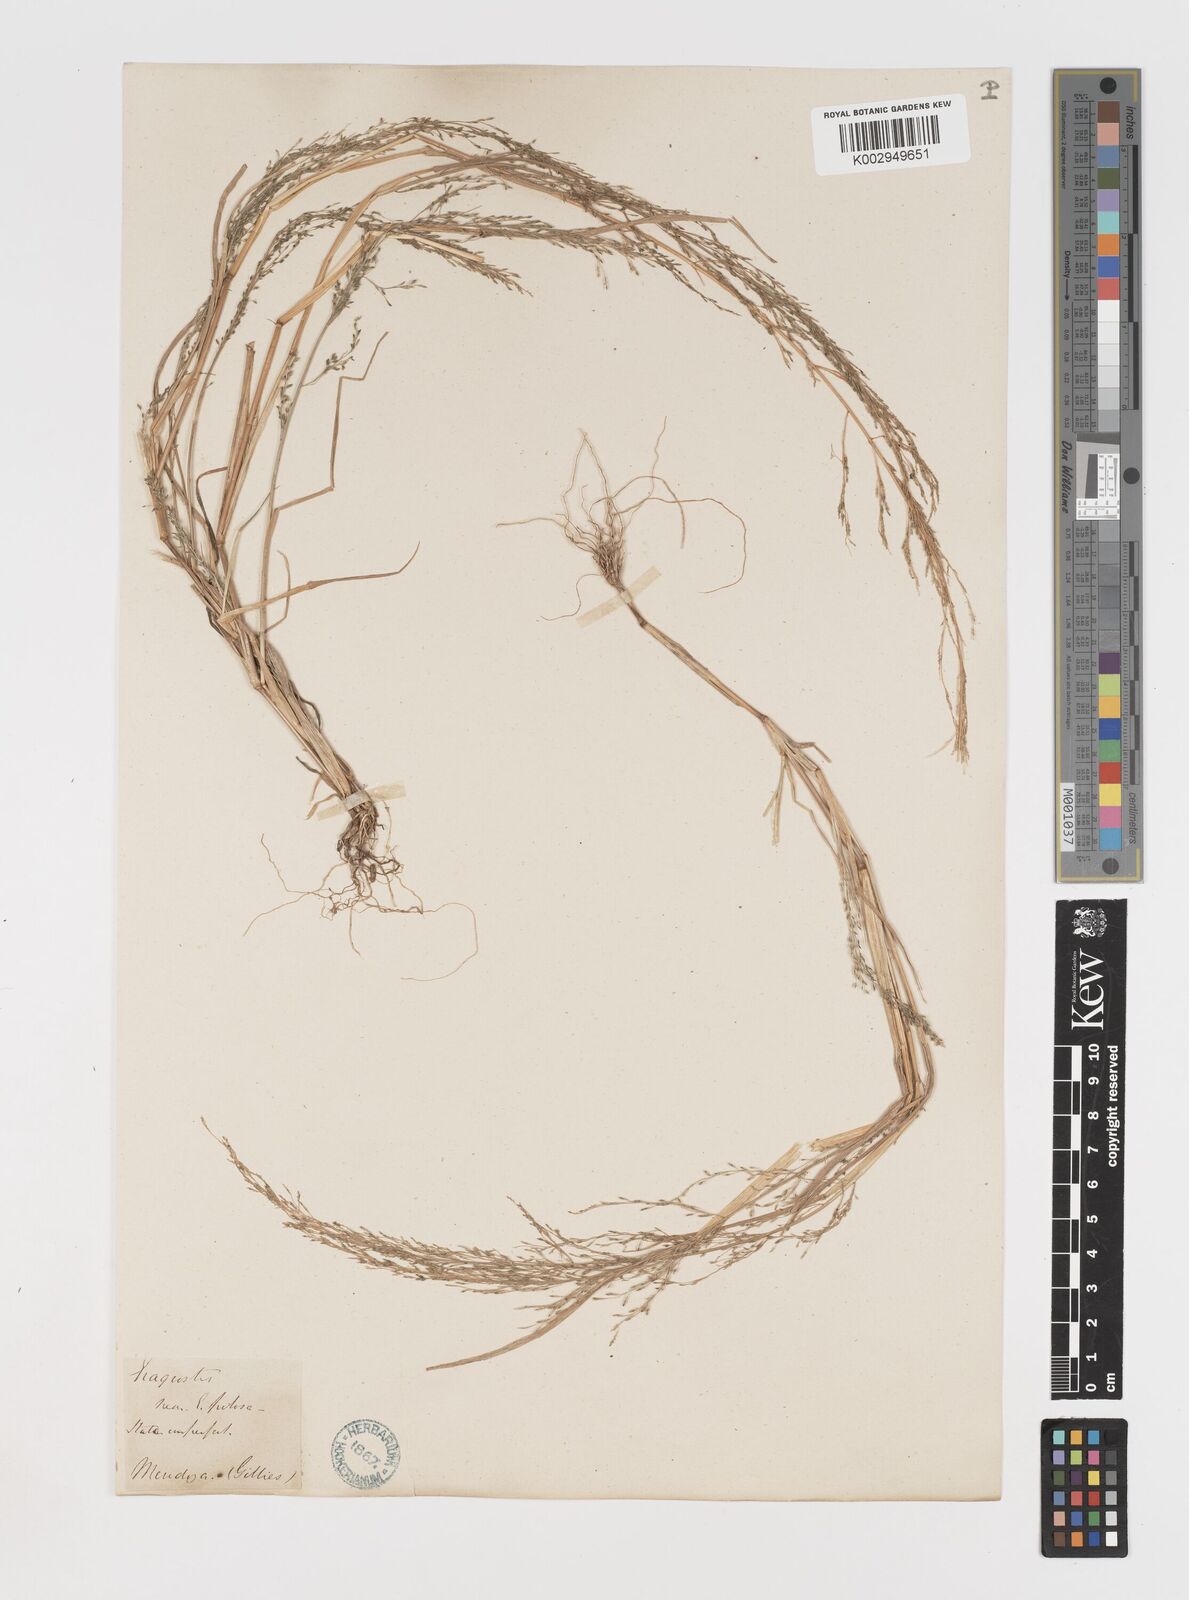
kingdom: Plantae
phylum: Tracheophyta
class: Liliopsida
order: Poales
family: Poaceae
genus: Eragrostis
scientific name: Eragrostis mexicana
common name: Mexican love grass
